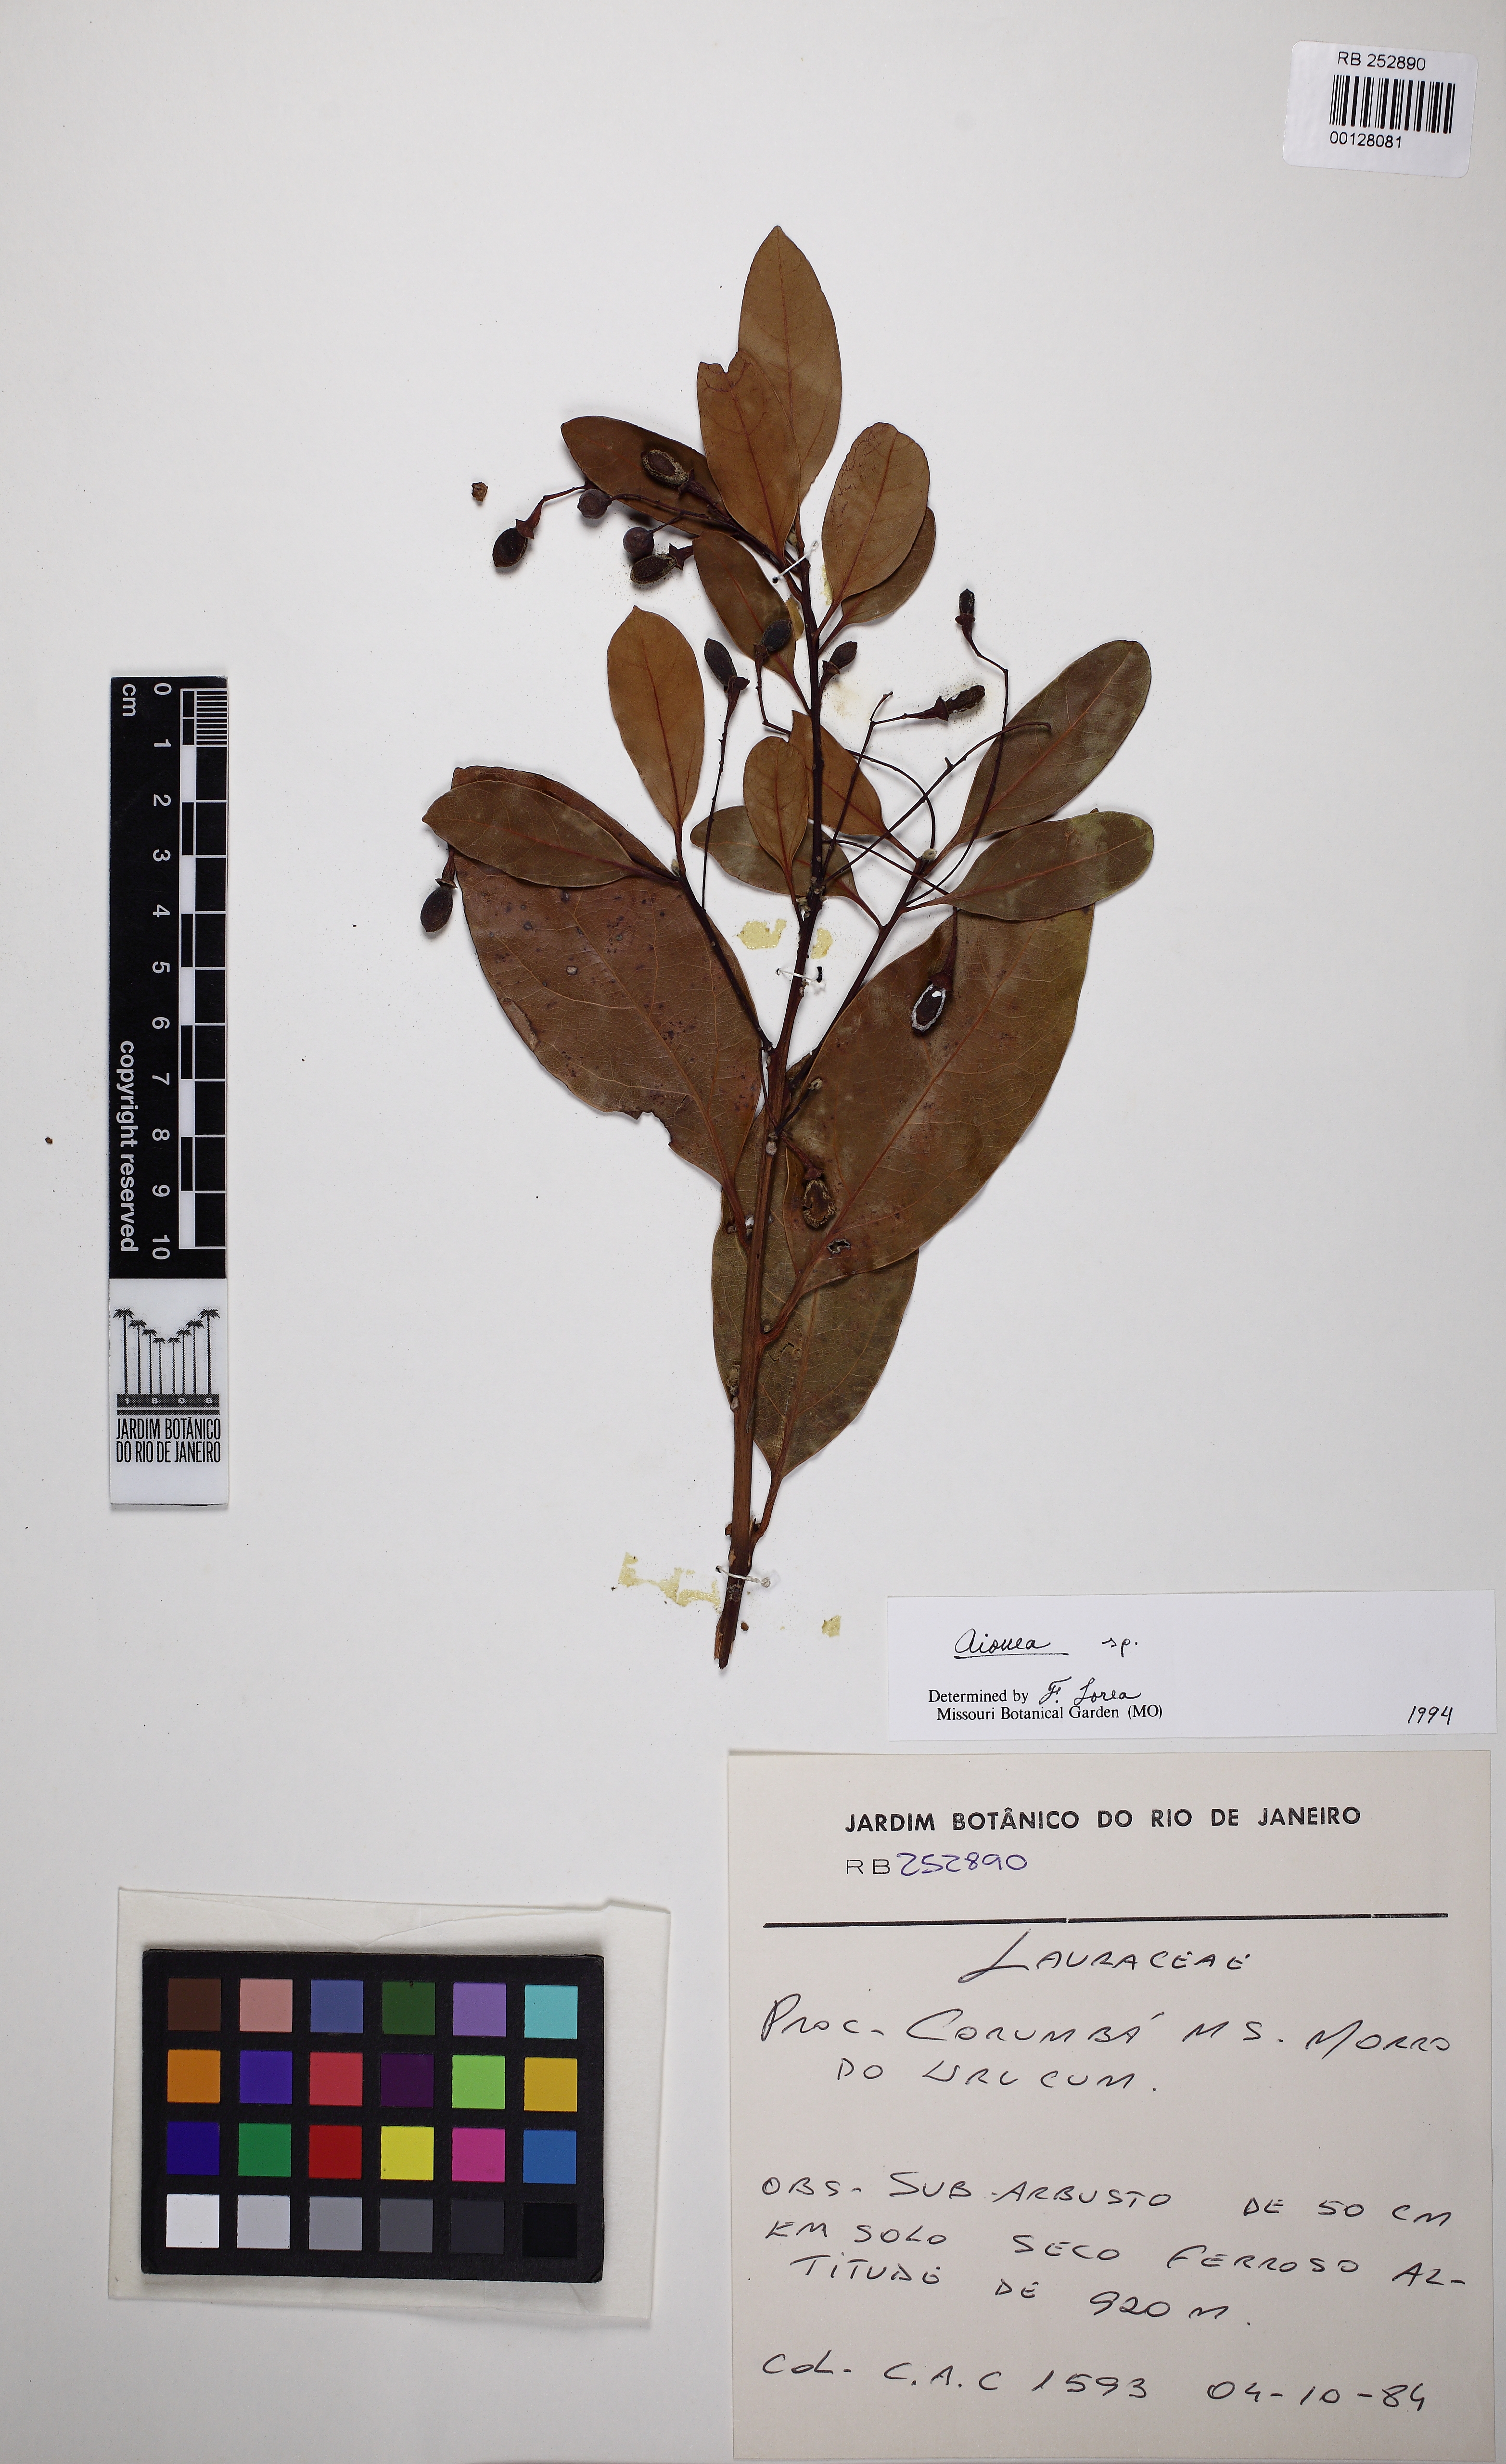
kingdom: Plantae
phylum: Tracheophyta
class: Magnoliopsida
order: Laurales
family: Lauraceae
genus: Aiouea
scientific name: Aiouea
